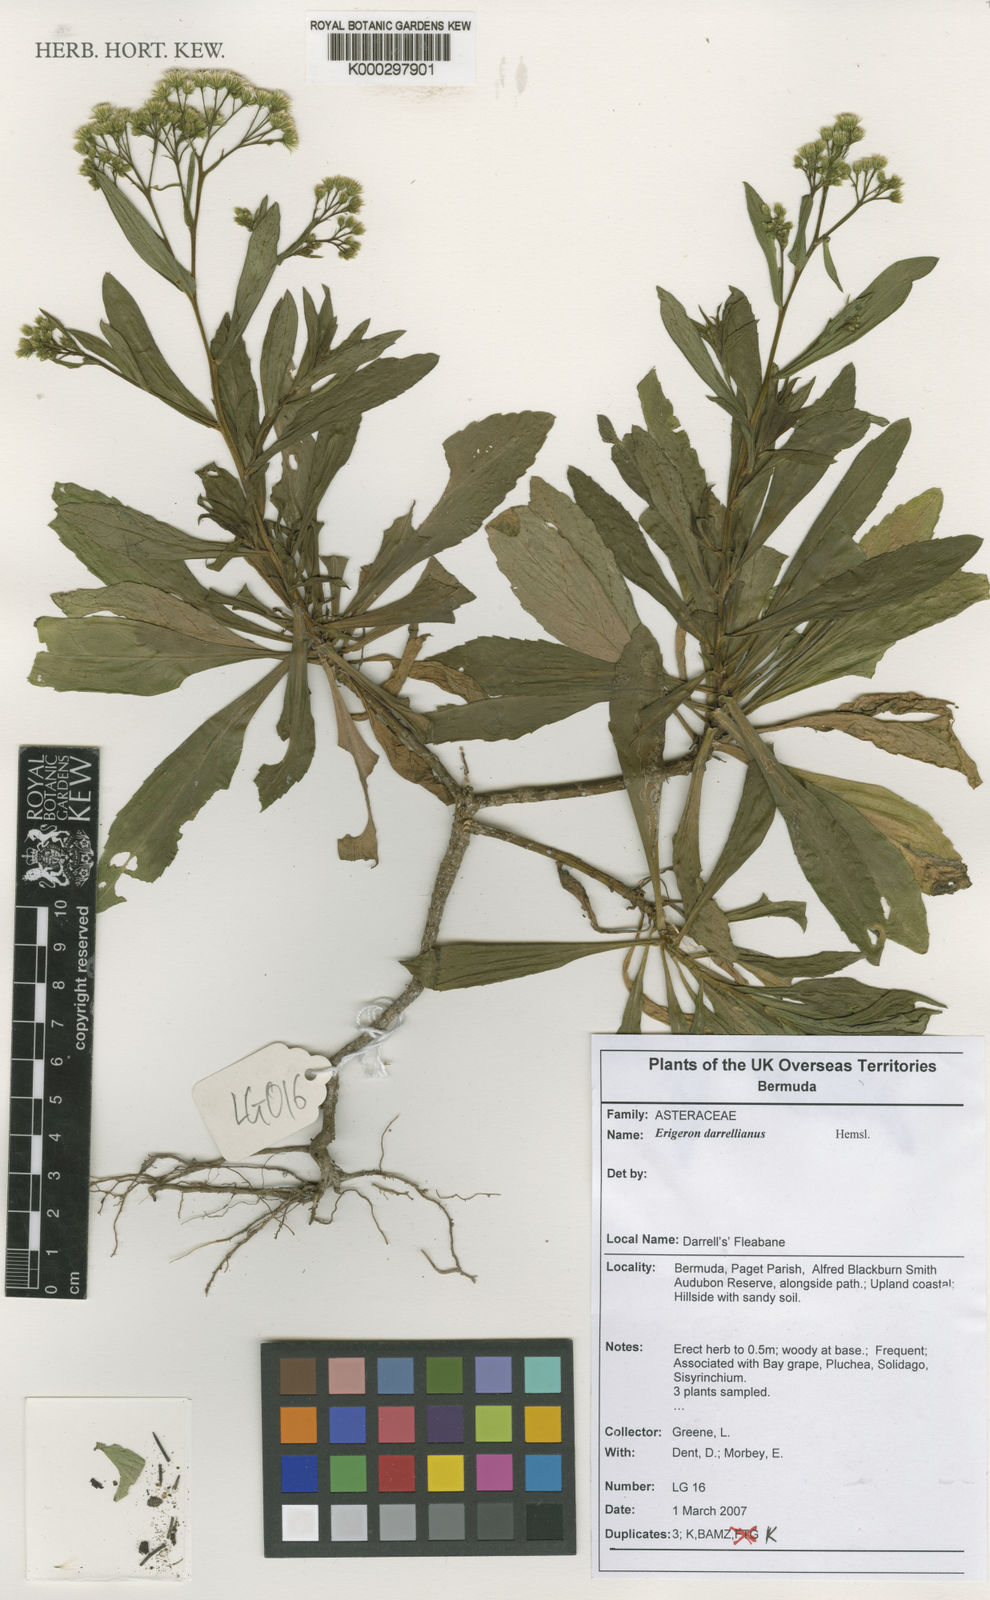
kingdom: Plantae
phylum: Tracheophyta
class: Magnoliopsida
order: Asterales
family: Asteraceae
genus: Erigeron
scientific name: Erigeron darrellianus
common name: Darrell's fleabane
